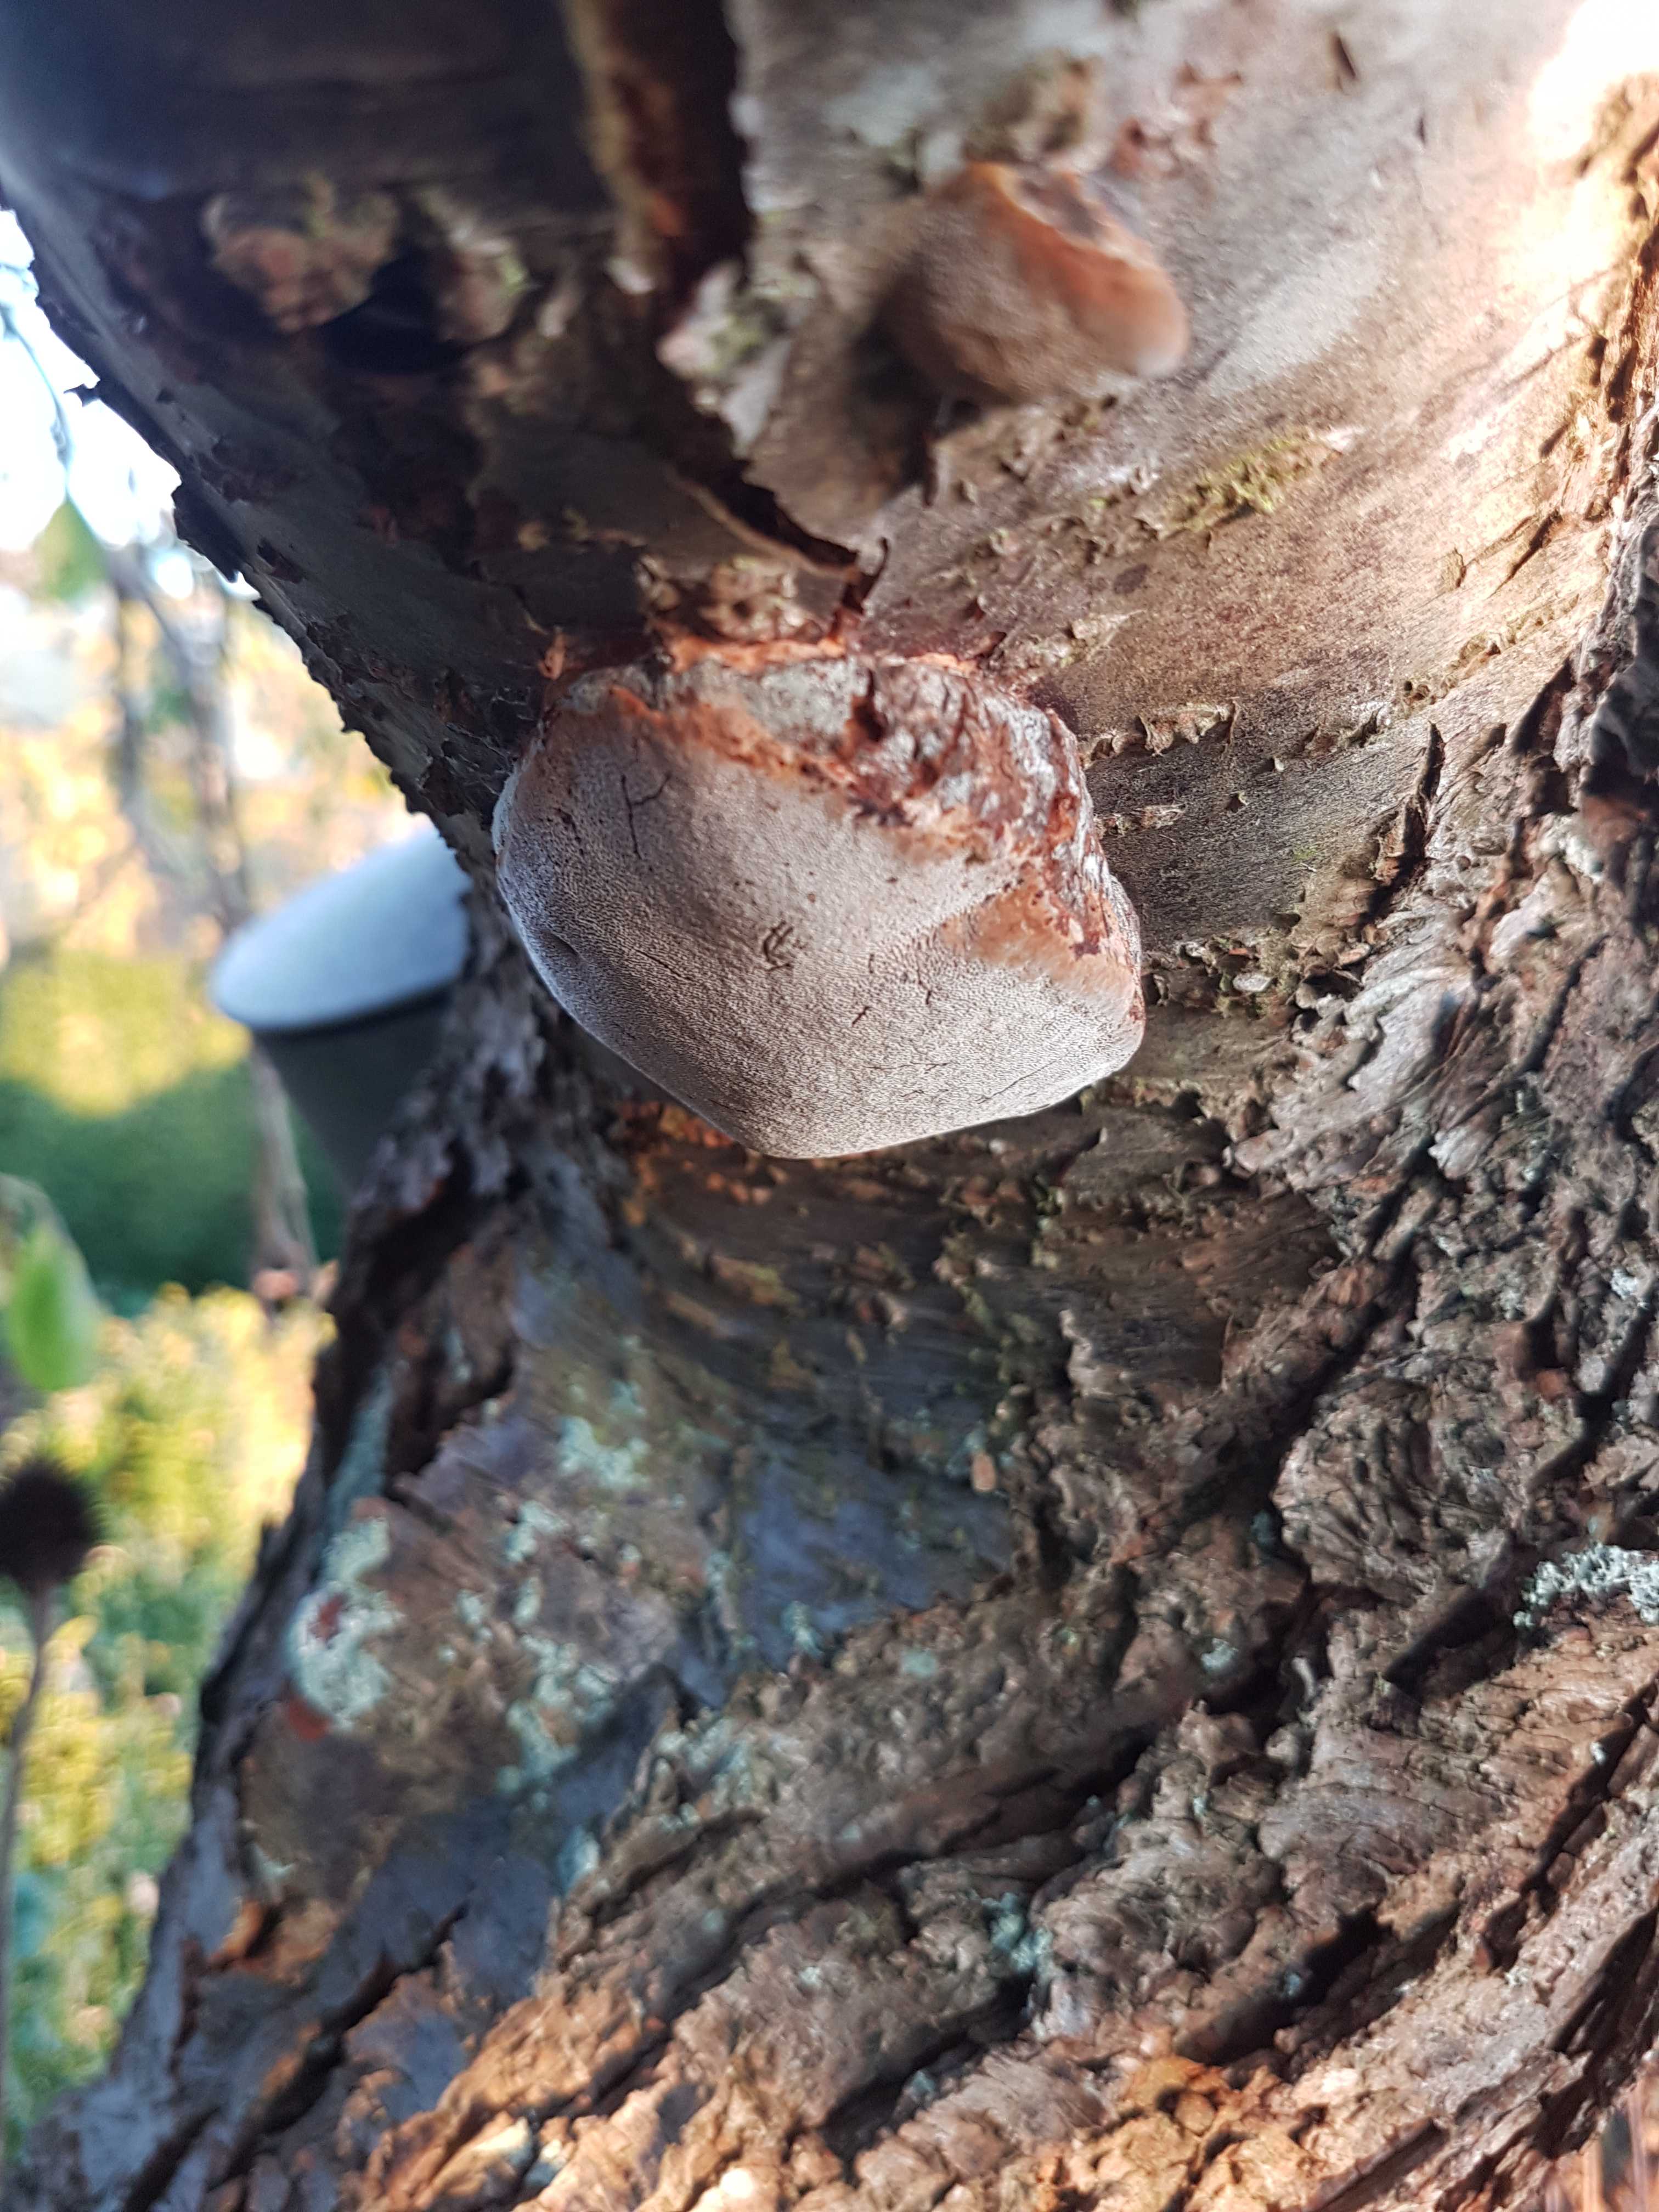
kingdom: Fungi
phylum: Basidiomycota
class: Agaricomycetes
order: Hymenochaetales
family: Hymenochaetaceae
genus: Phellinus
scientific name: Phellinus pomaceus
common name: blomme-ildporesvamp
